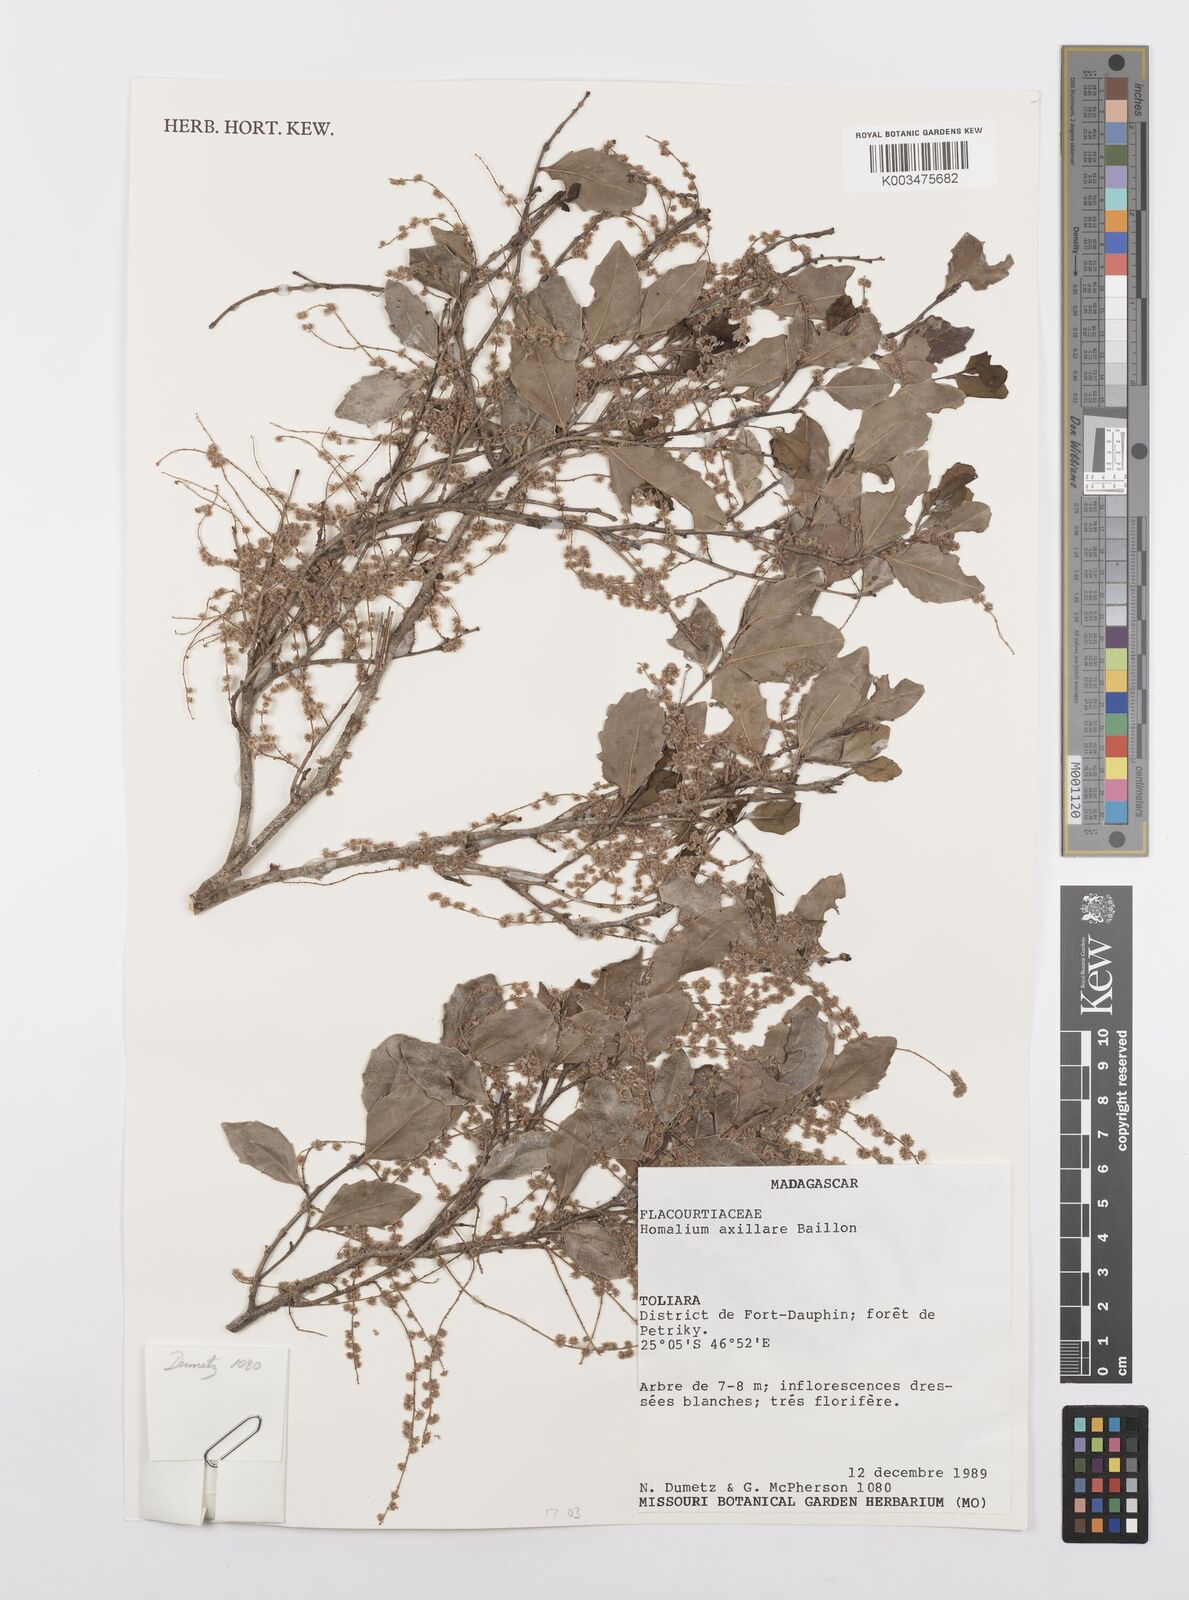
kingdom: Plantae
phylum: Tracheophyta
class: Magnoliopsida
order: Malpighiales
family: Salicaceae
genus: Homalium
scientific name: Homalium axillare
